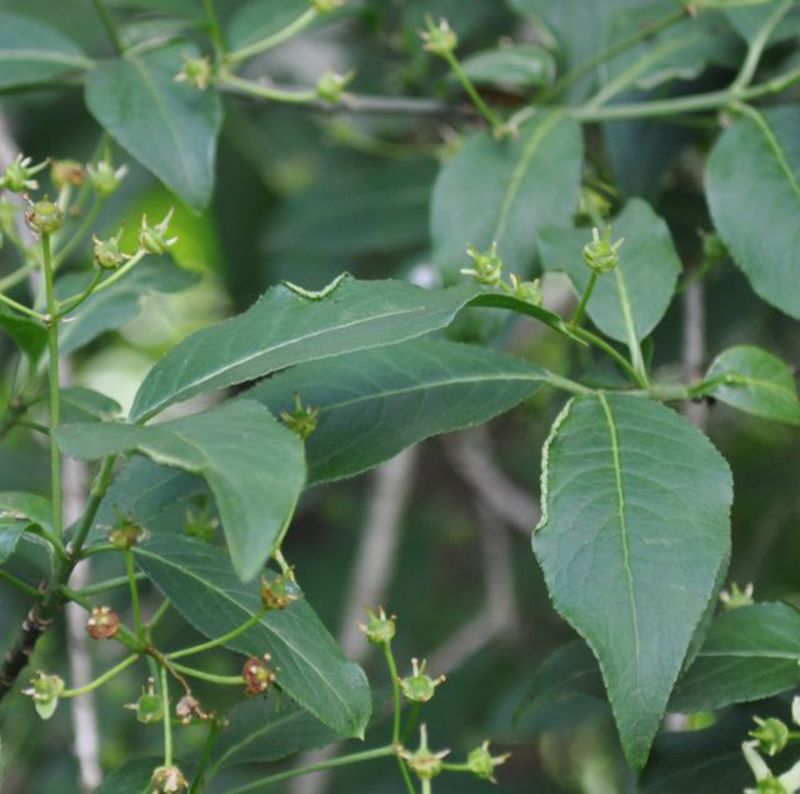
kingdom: Animalia
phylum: Arthropoda
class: Arachnida
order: Trombidiformes
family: Eriophyidae
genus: Stenacis
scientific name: Stenacis evonymi
